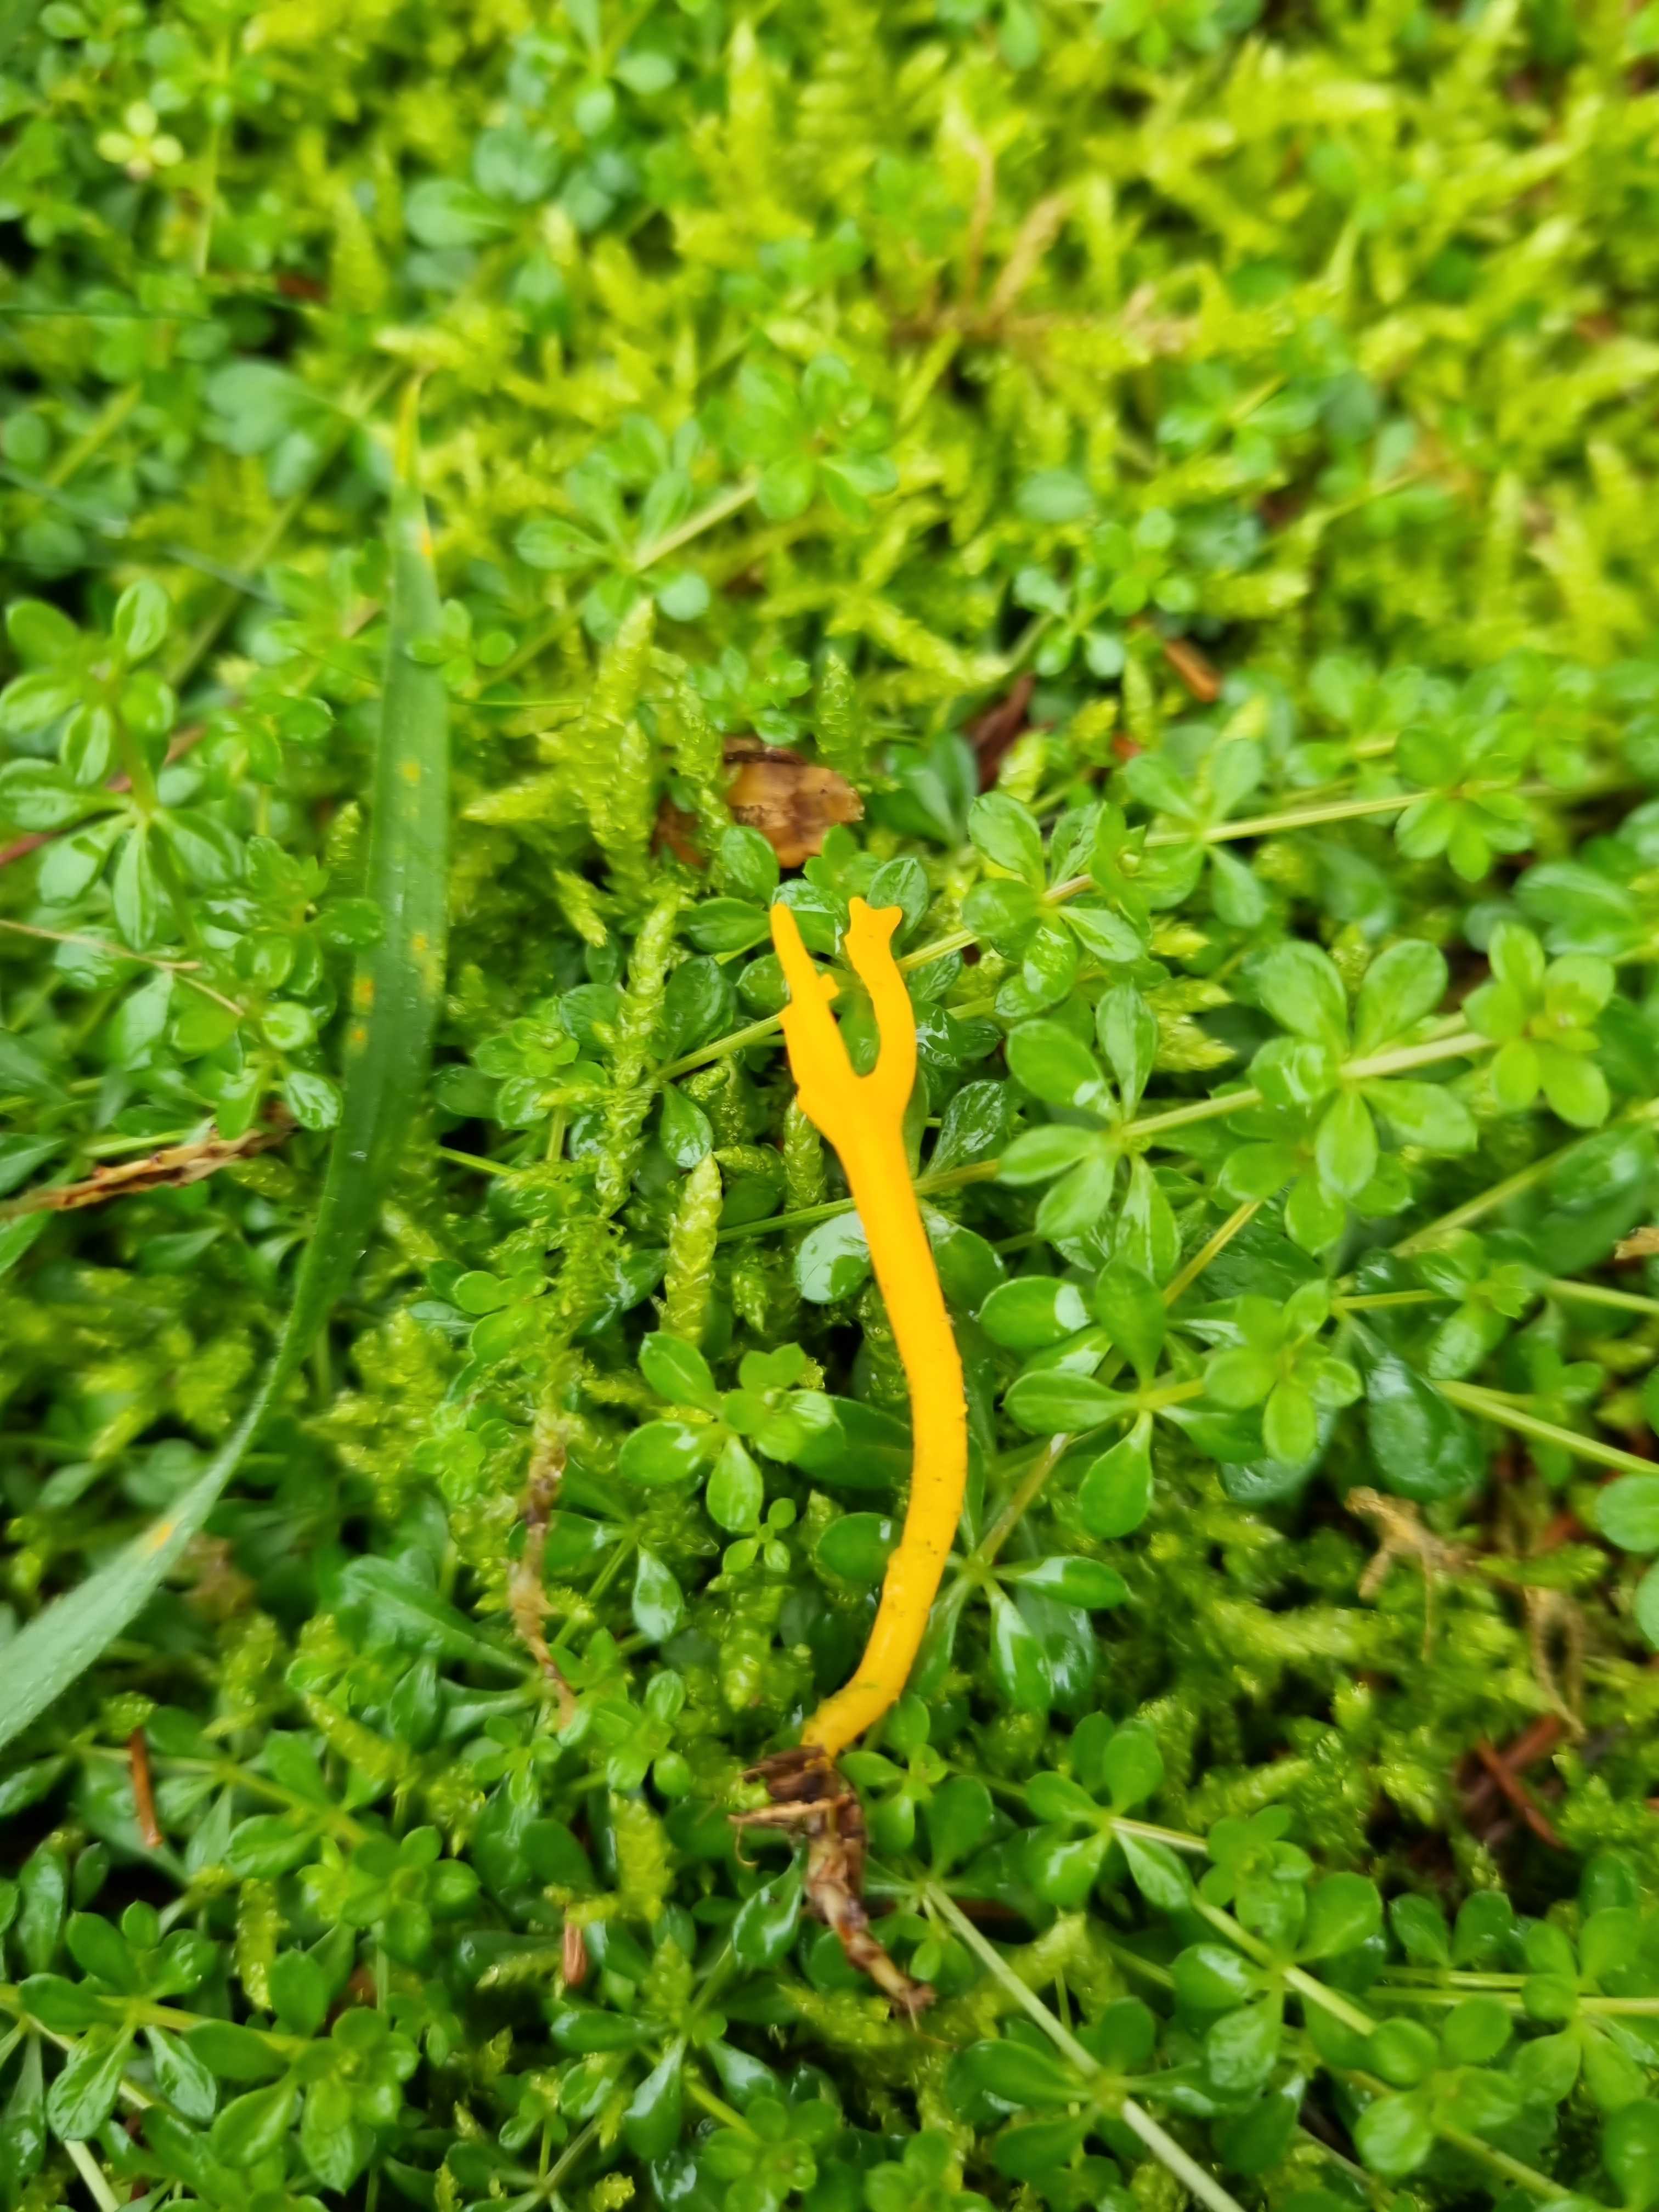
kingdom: Fungi
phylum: Basidiomycota
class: Dacrymycetes
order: Dacrymycetales
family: Dacrymycetaceae
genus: Calocera
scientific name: Calocera viscosa
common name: almindelig guldgaffel
